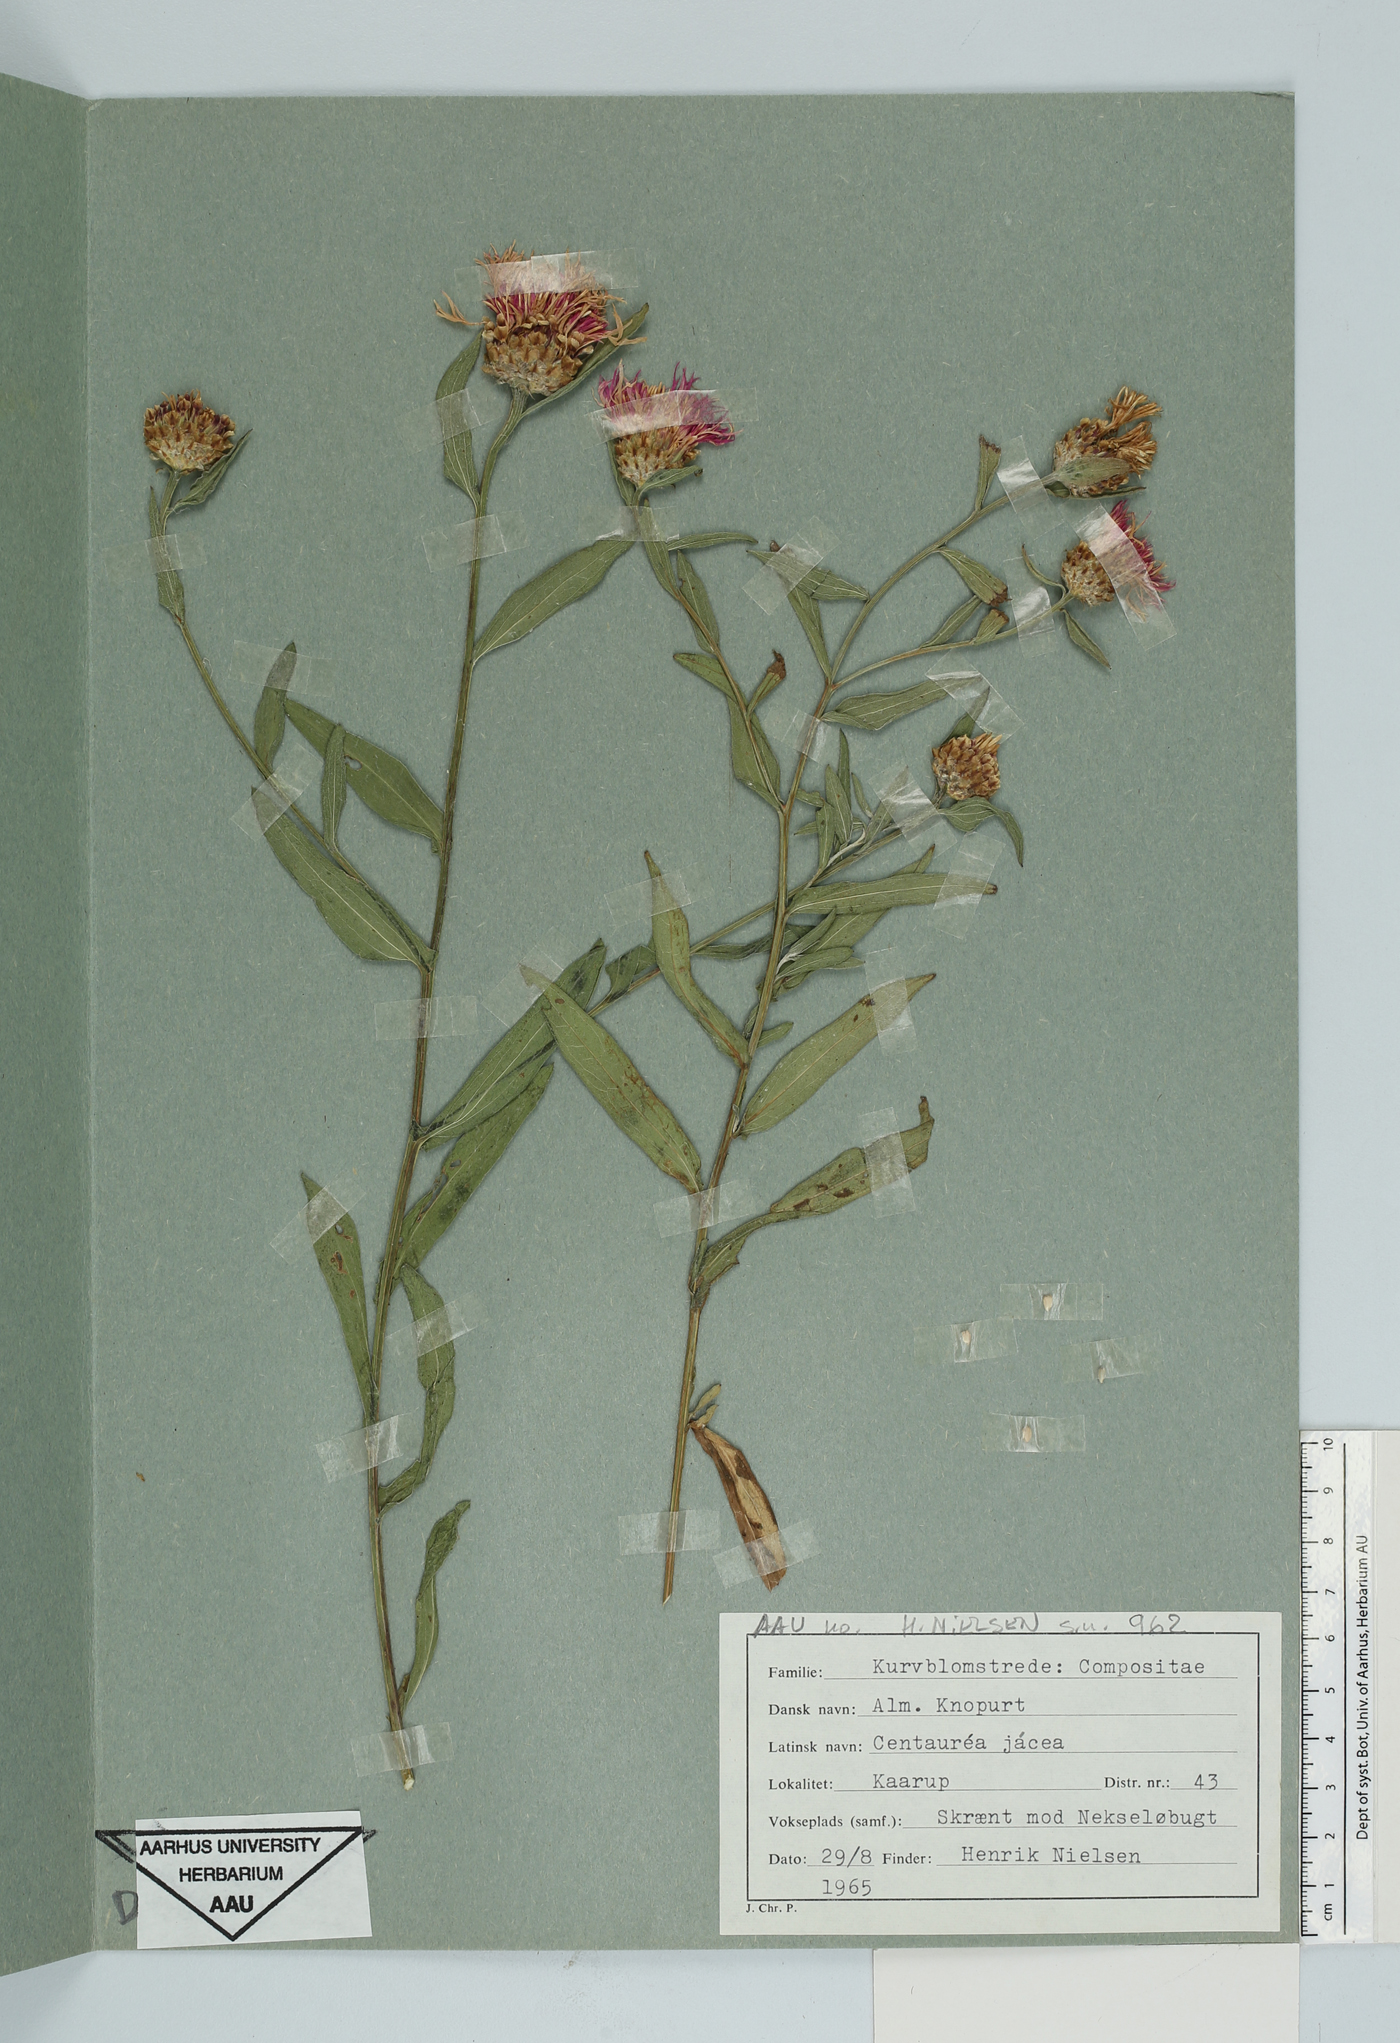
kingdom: Plantae
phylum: Tracheophyta
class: Magnoliopsida
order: Asterales
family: Asteraceae
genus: Centaurea
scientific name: Centaurea jacea
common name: Brown knapweed
